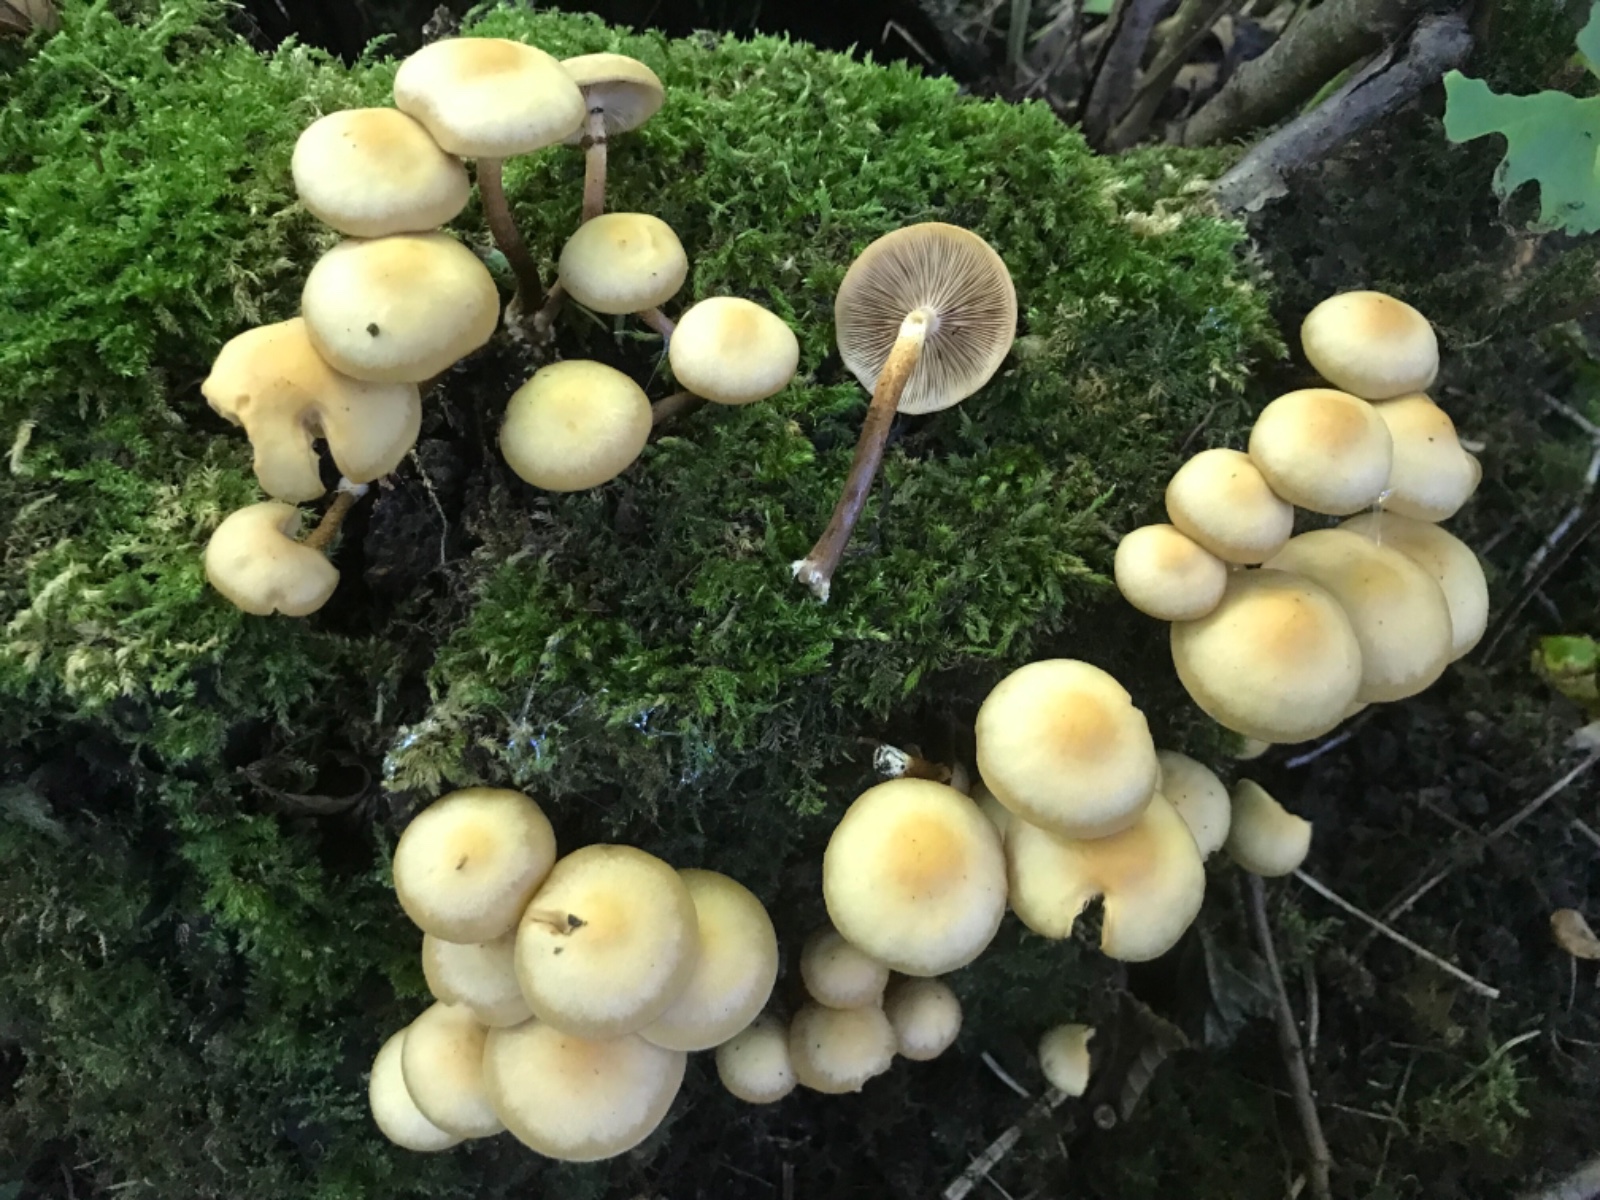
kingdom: Fungi
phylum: Basidiomycota
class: Agaricomycetes
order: Agaricales
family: Strophariaceae
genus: Kuehneromyces
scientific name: Kuehneromyces mutabilis
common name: foranderlig skælhat
